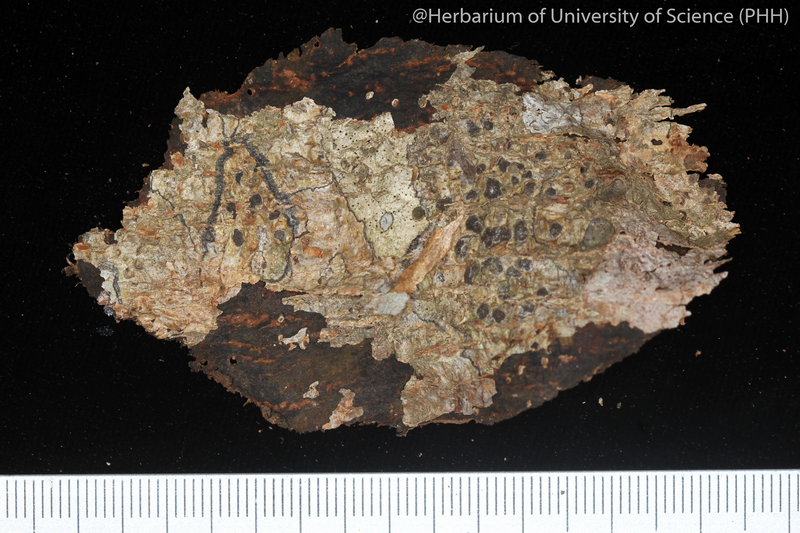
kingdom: Fungi
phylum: Ascomycota
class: Lecanoromycetes
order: Ostropales
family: Graphidaceae
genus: Glyphis
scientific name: Glyphis cicatricosa
